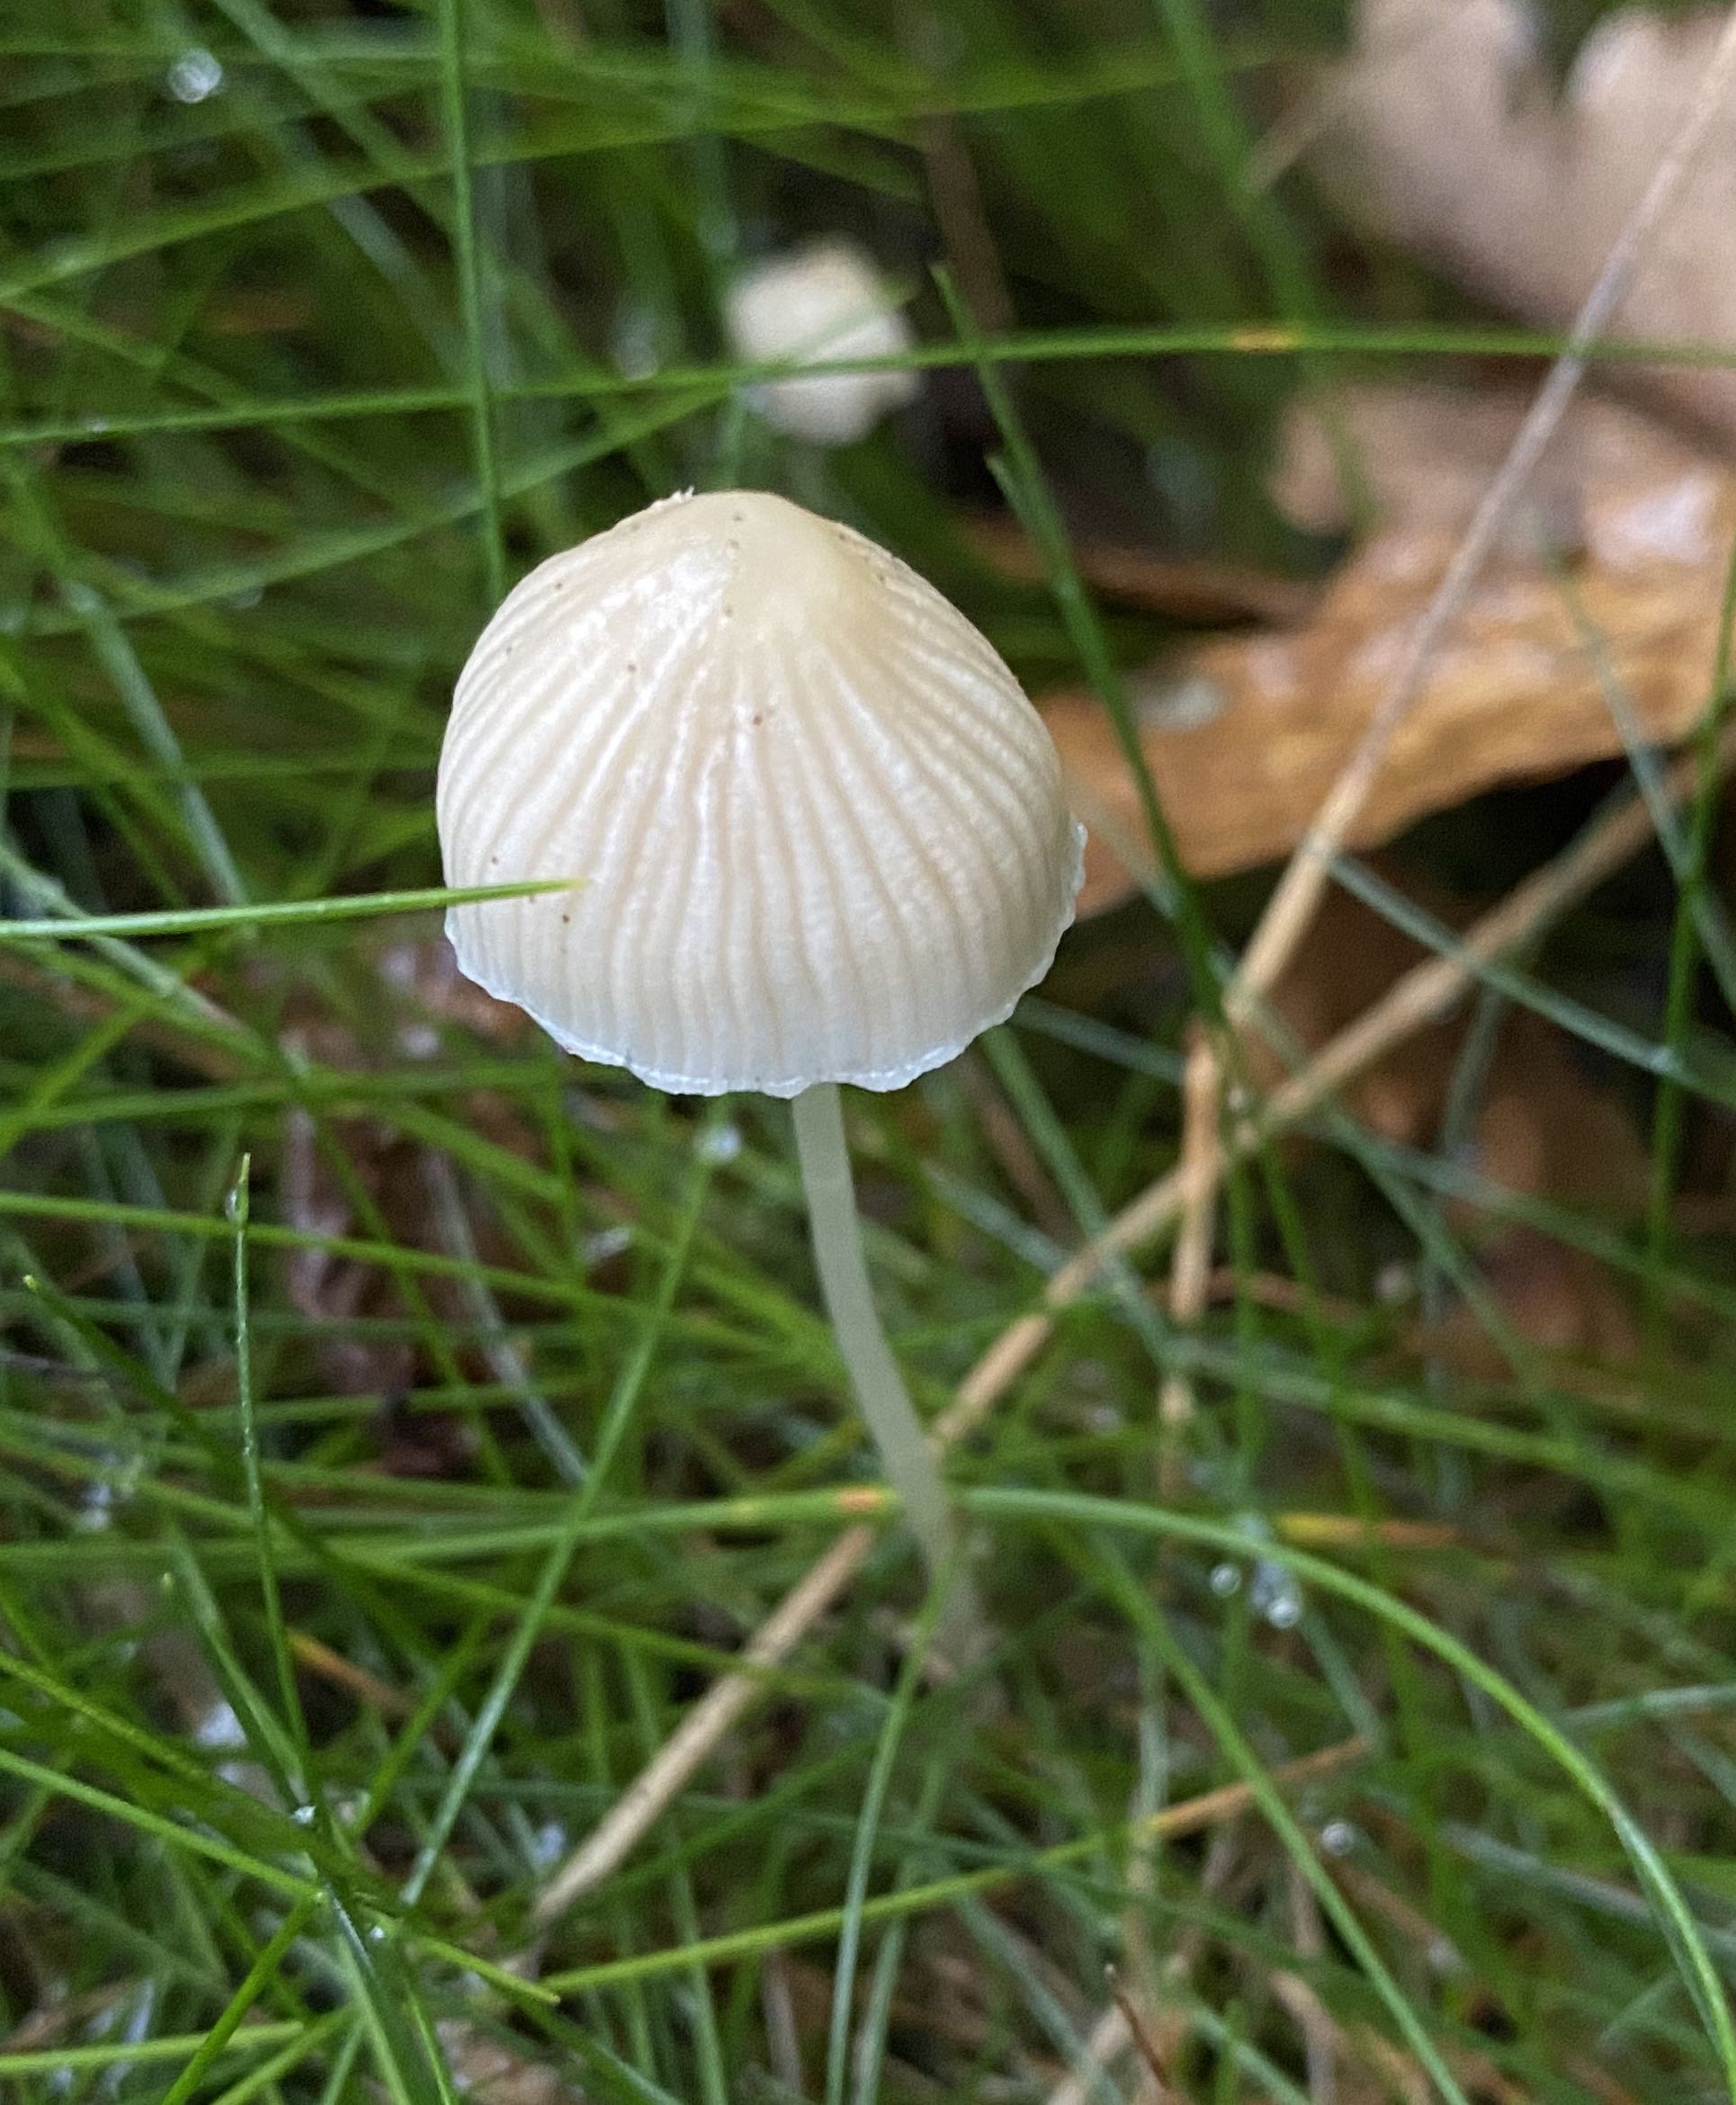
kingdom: Fungi
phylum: Basidiomycota
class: Agaricomycetes
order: Agaricales
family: Mycenaceae
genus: Mycena
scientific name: Mycena epipterygia
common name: gulstokket huesvamp
